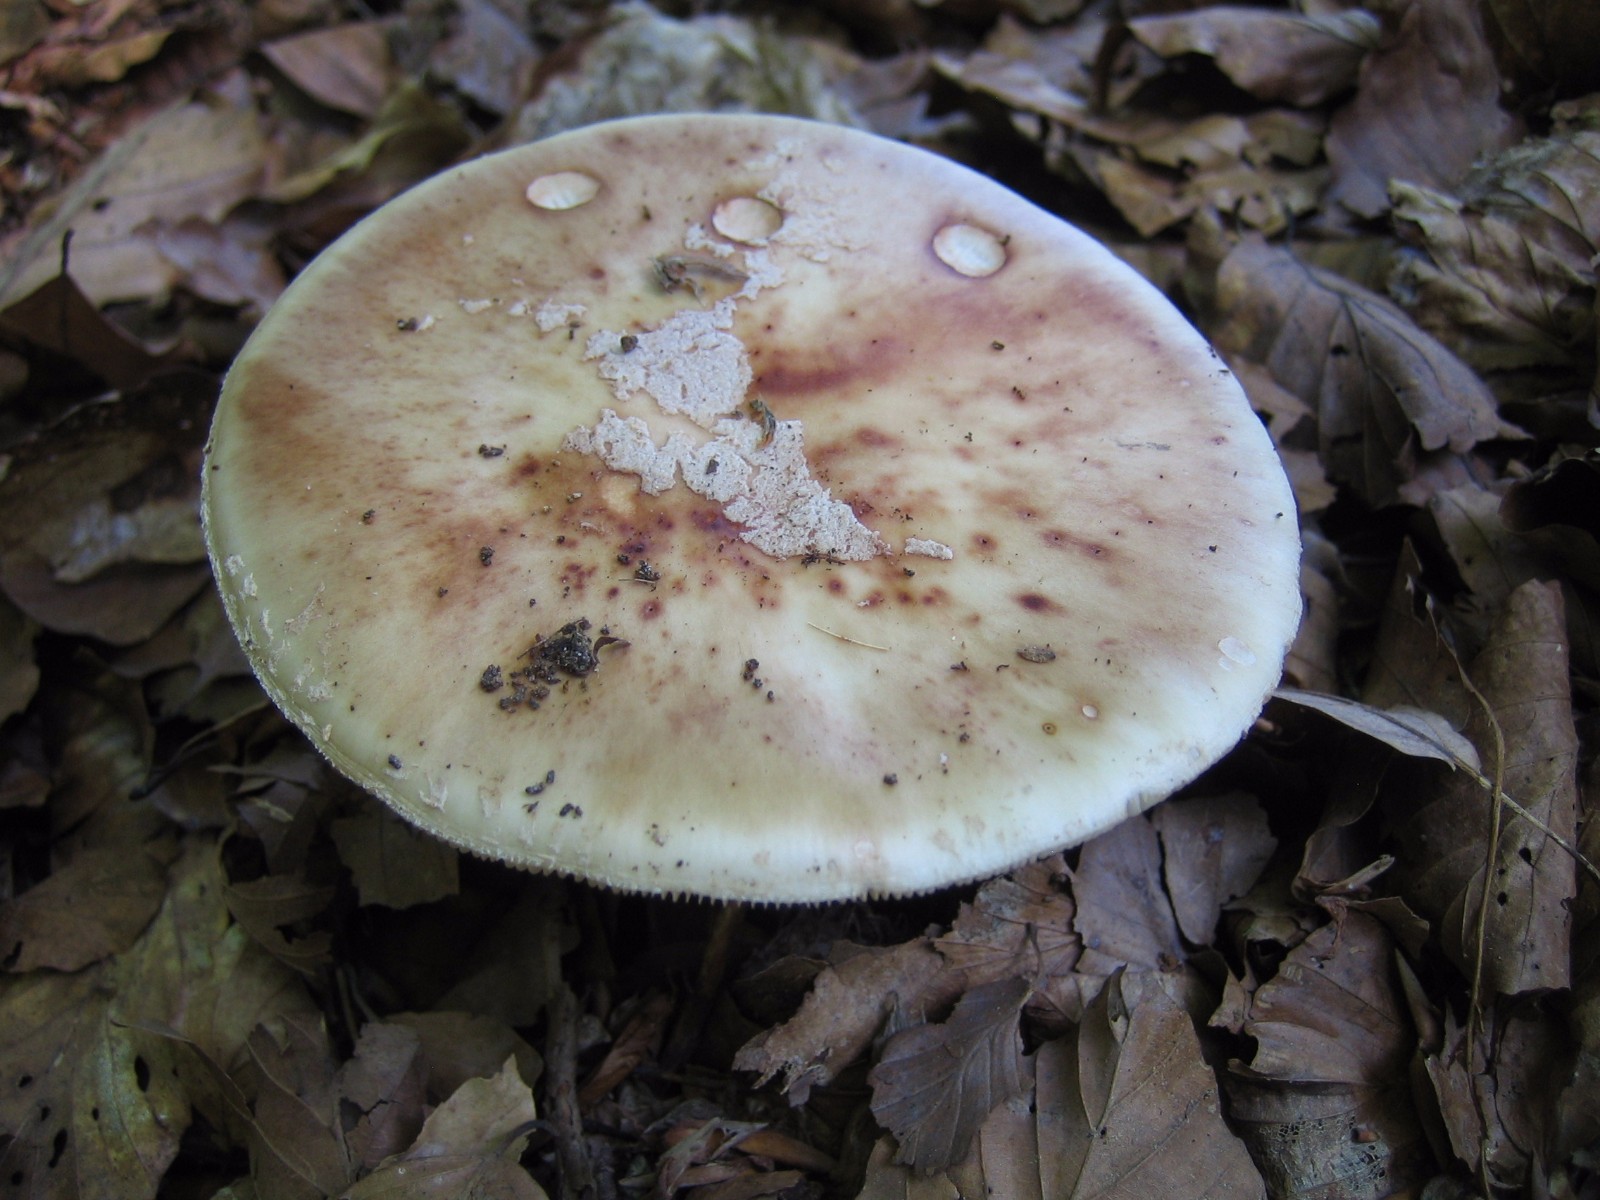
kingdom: Fungi
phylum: Basidiomycota
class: Agaricomycetes
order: Agaricales
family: Amanitaceae
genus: Amanita
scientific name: Amanita rubescens
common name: rødmende fluesvamp
